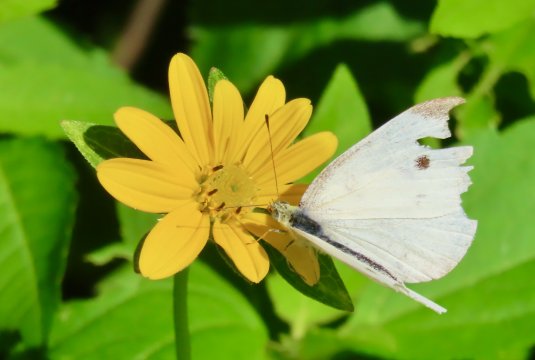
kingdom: Animalia
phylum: Arthropoda
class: Insecta
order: Lepidoptera
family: Pieridae
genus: Pieris
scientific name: Pieris rapae
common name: Cabbage White
